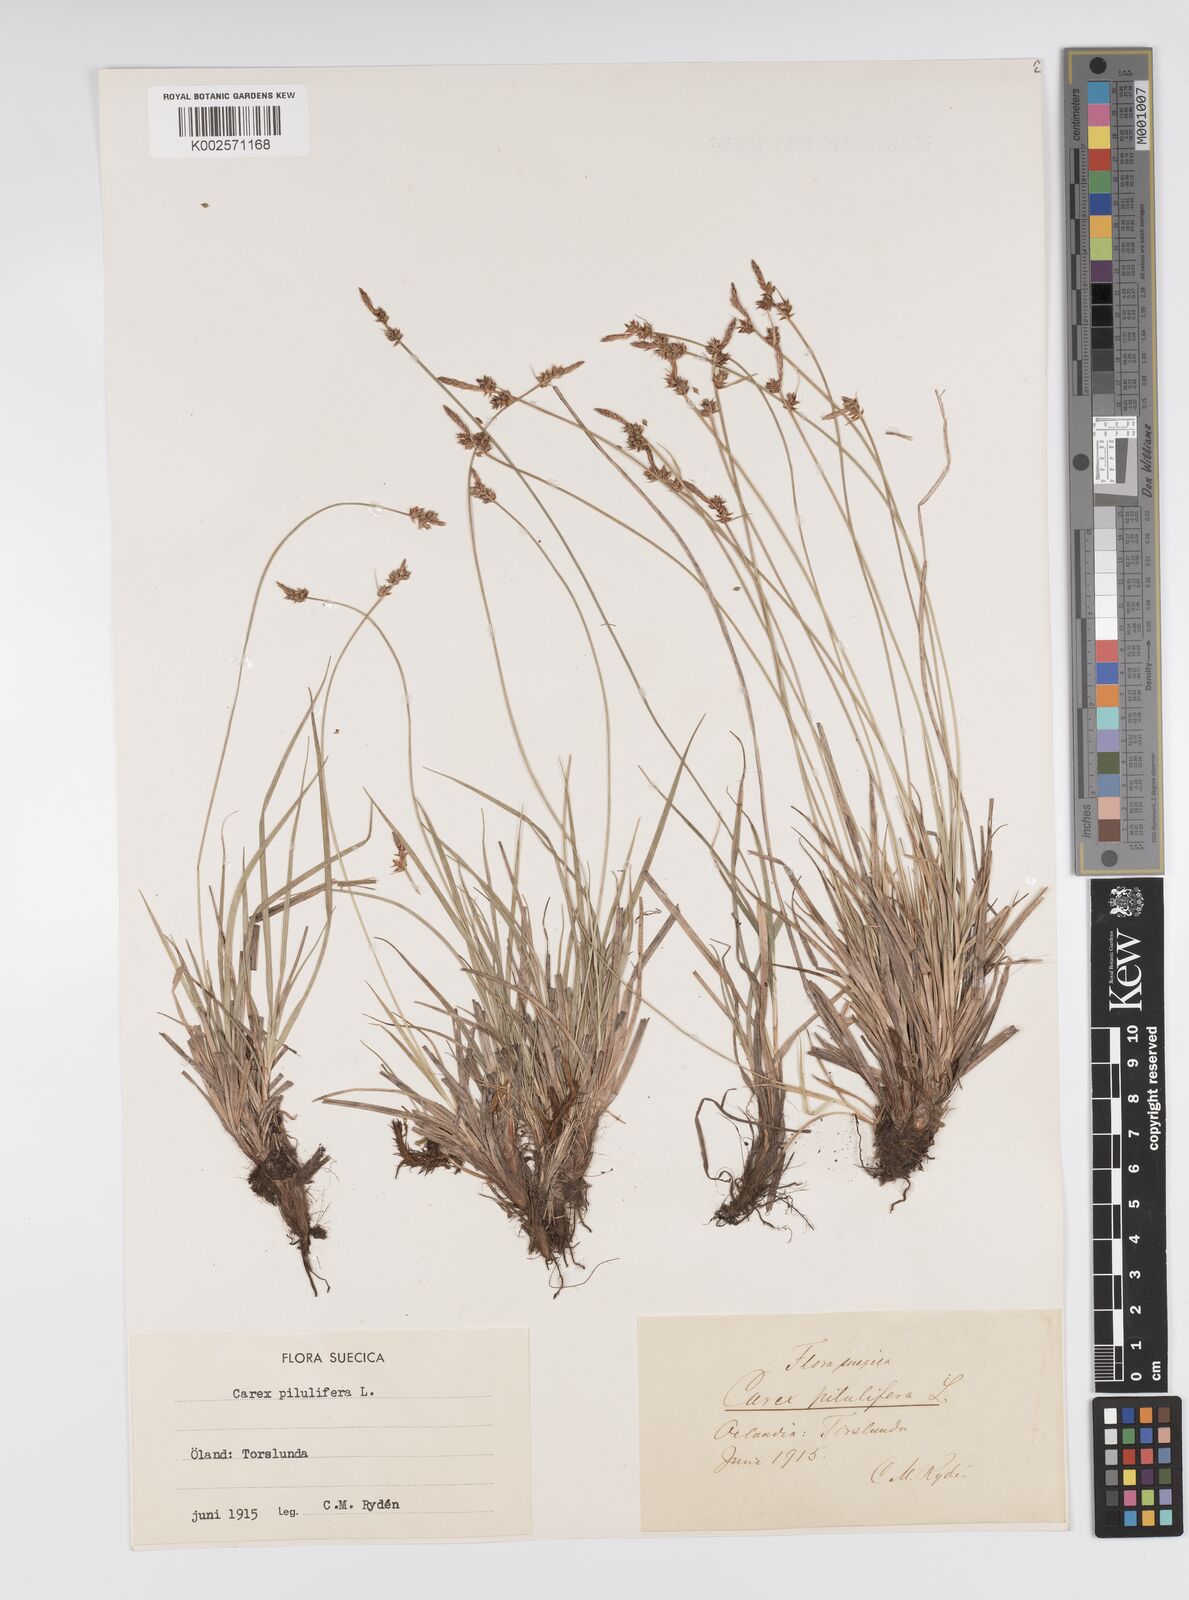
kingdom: Plantae
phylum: Tracheophyta
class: Liliopsida
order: Poales
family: Cyperaceae
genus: Carex
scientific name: Carex pilulifera
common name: Pill sedge
